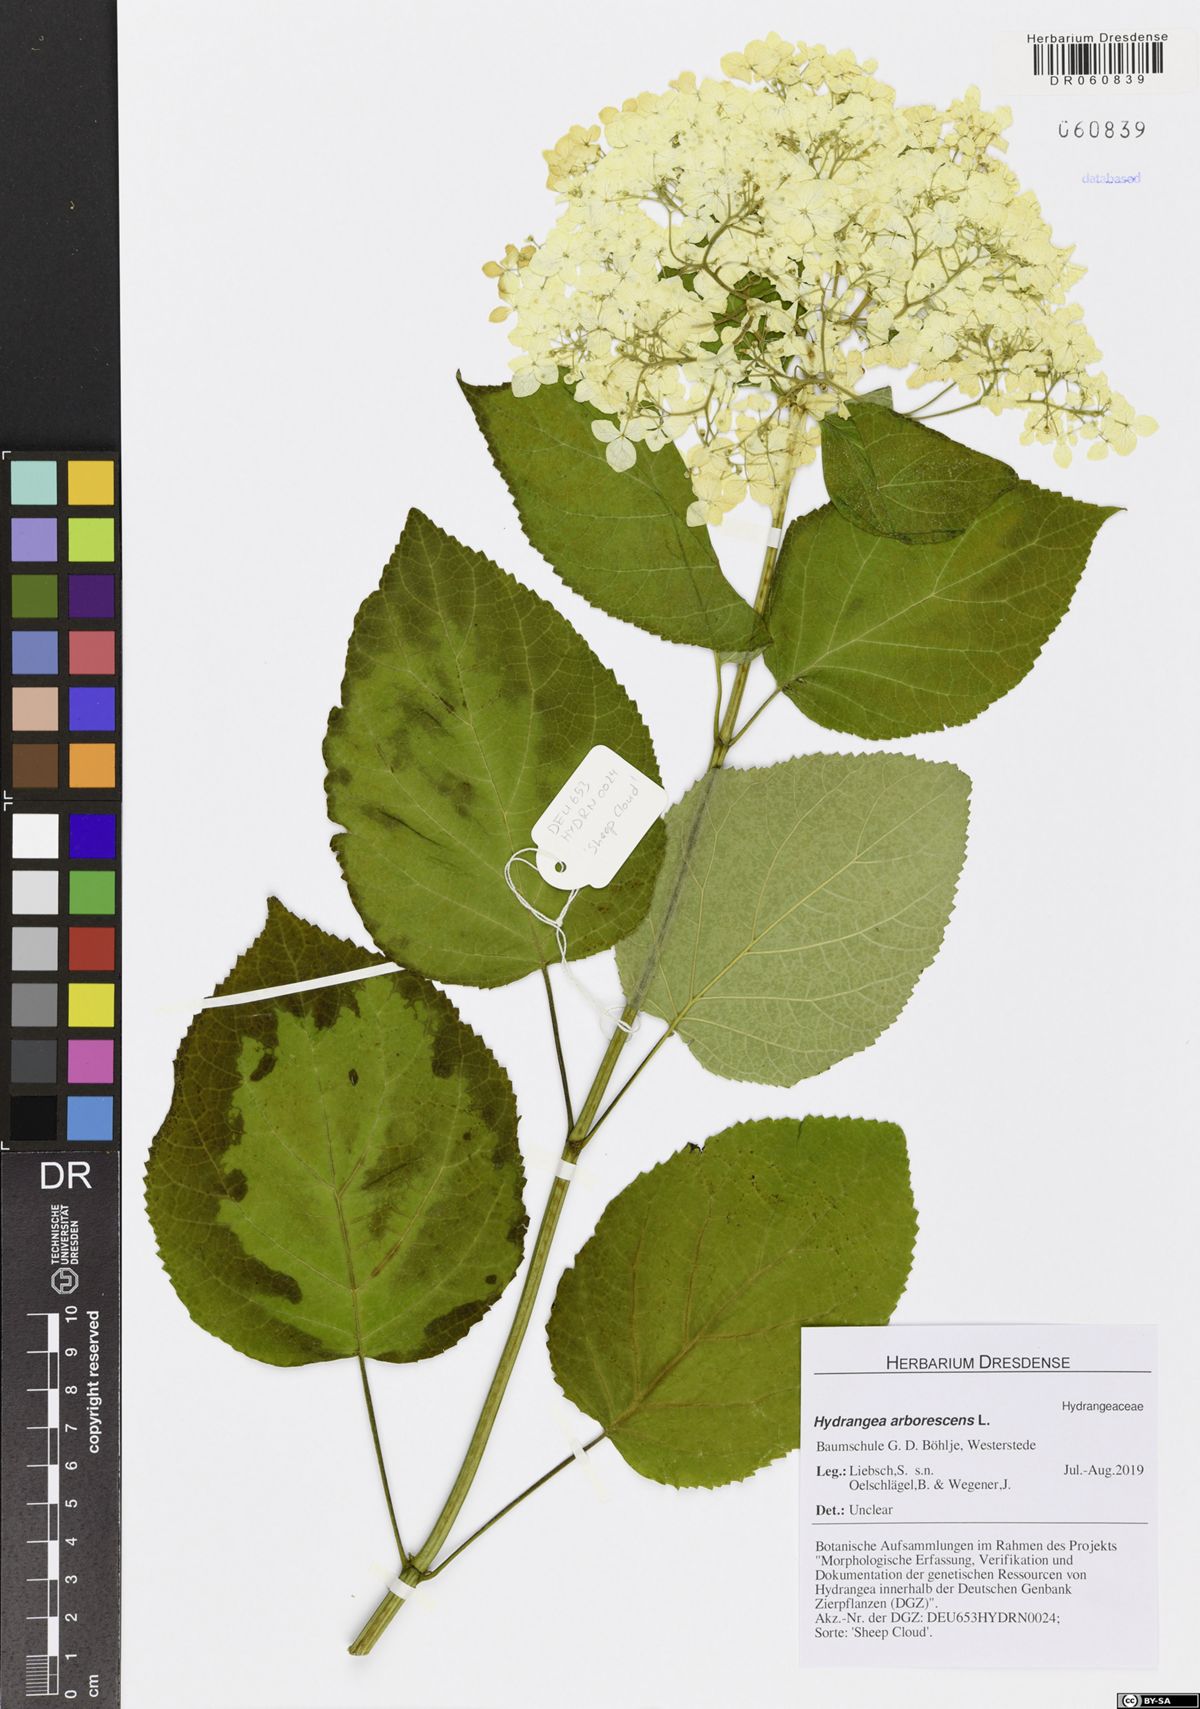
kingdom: Plantae
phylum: Tracheophyta
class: Magnoliopsida
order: Cornales
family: Hydrangeaceae
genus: Hydrangea
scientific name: Hydrangea arborescens
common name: Sevenbark
